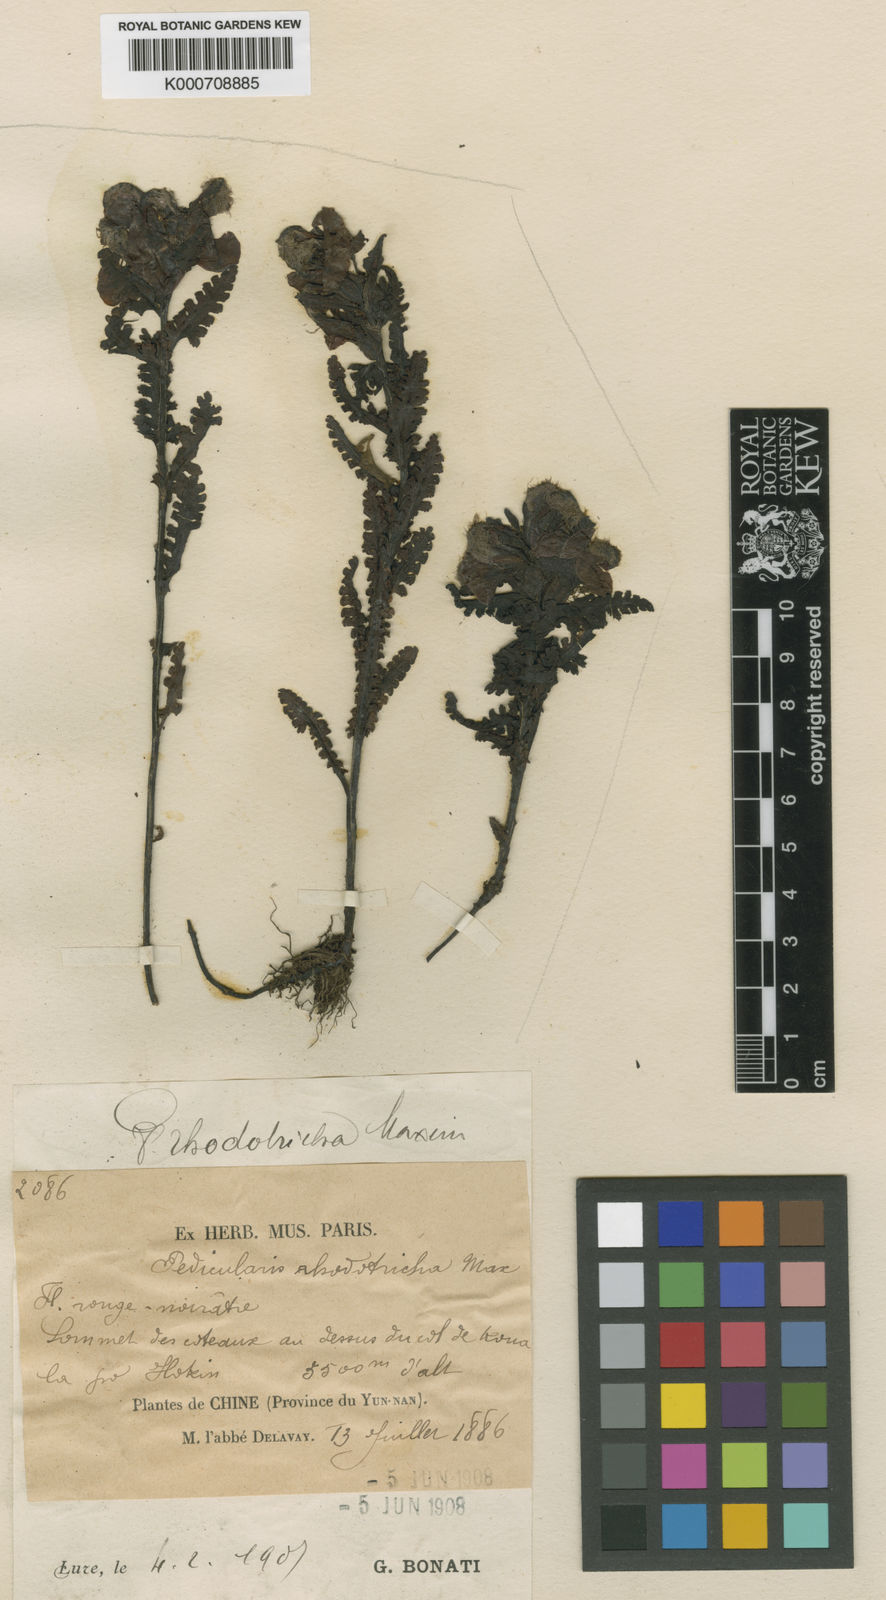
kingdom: Plantae
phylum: Tracheophyta
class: Magnoliopsida
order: Lamiales
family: Orobanchaceae
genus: Pedicularis
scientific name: Pedicularis rhodotricha
